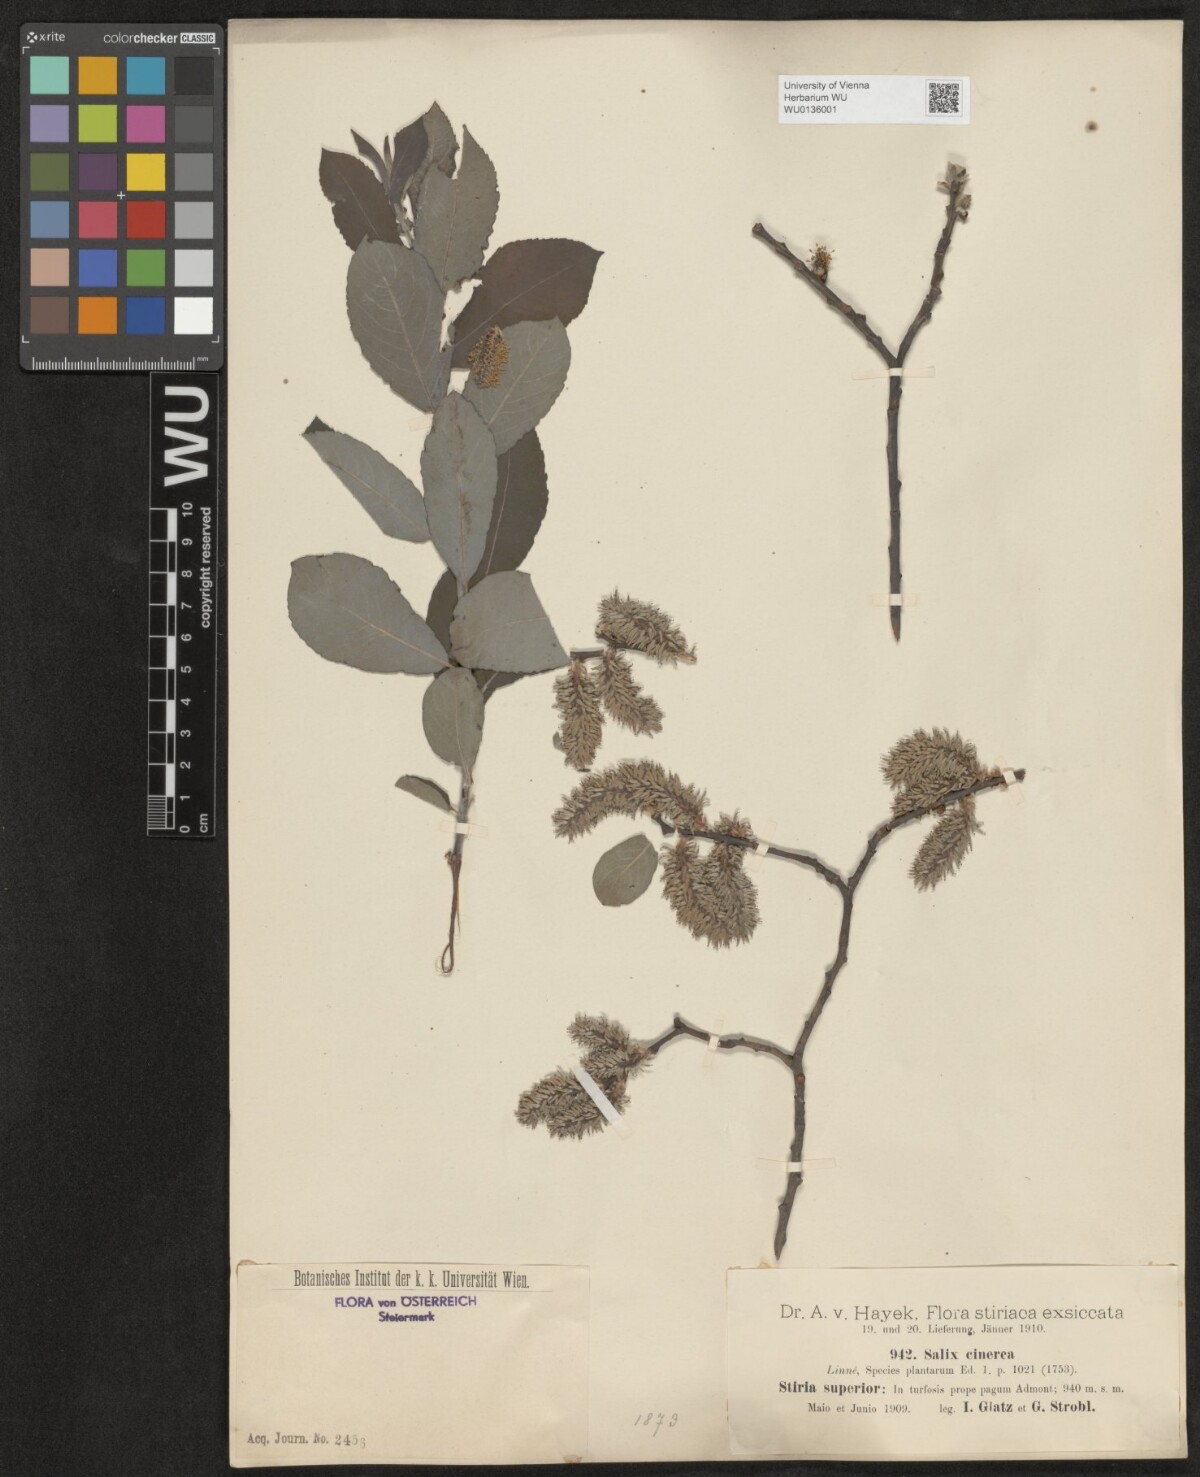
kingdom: Plantae
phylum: Tracheophyta
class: Magnoliopsida
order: Malpighiales
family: Salicaceae
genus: Salix
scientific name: Salix cinerea
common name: Common sallow
